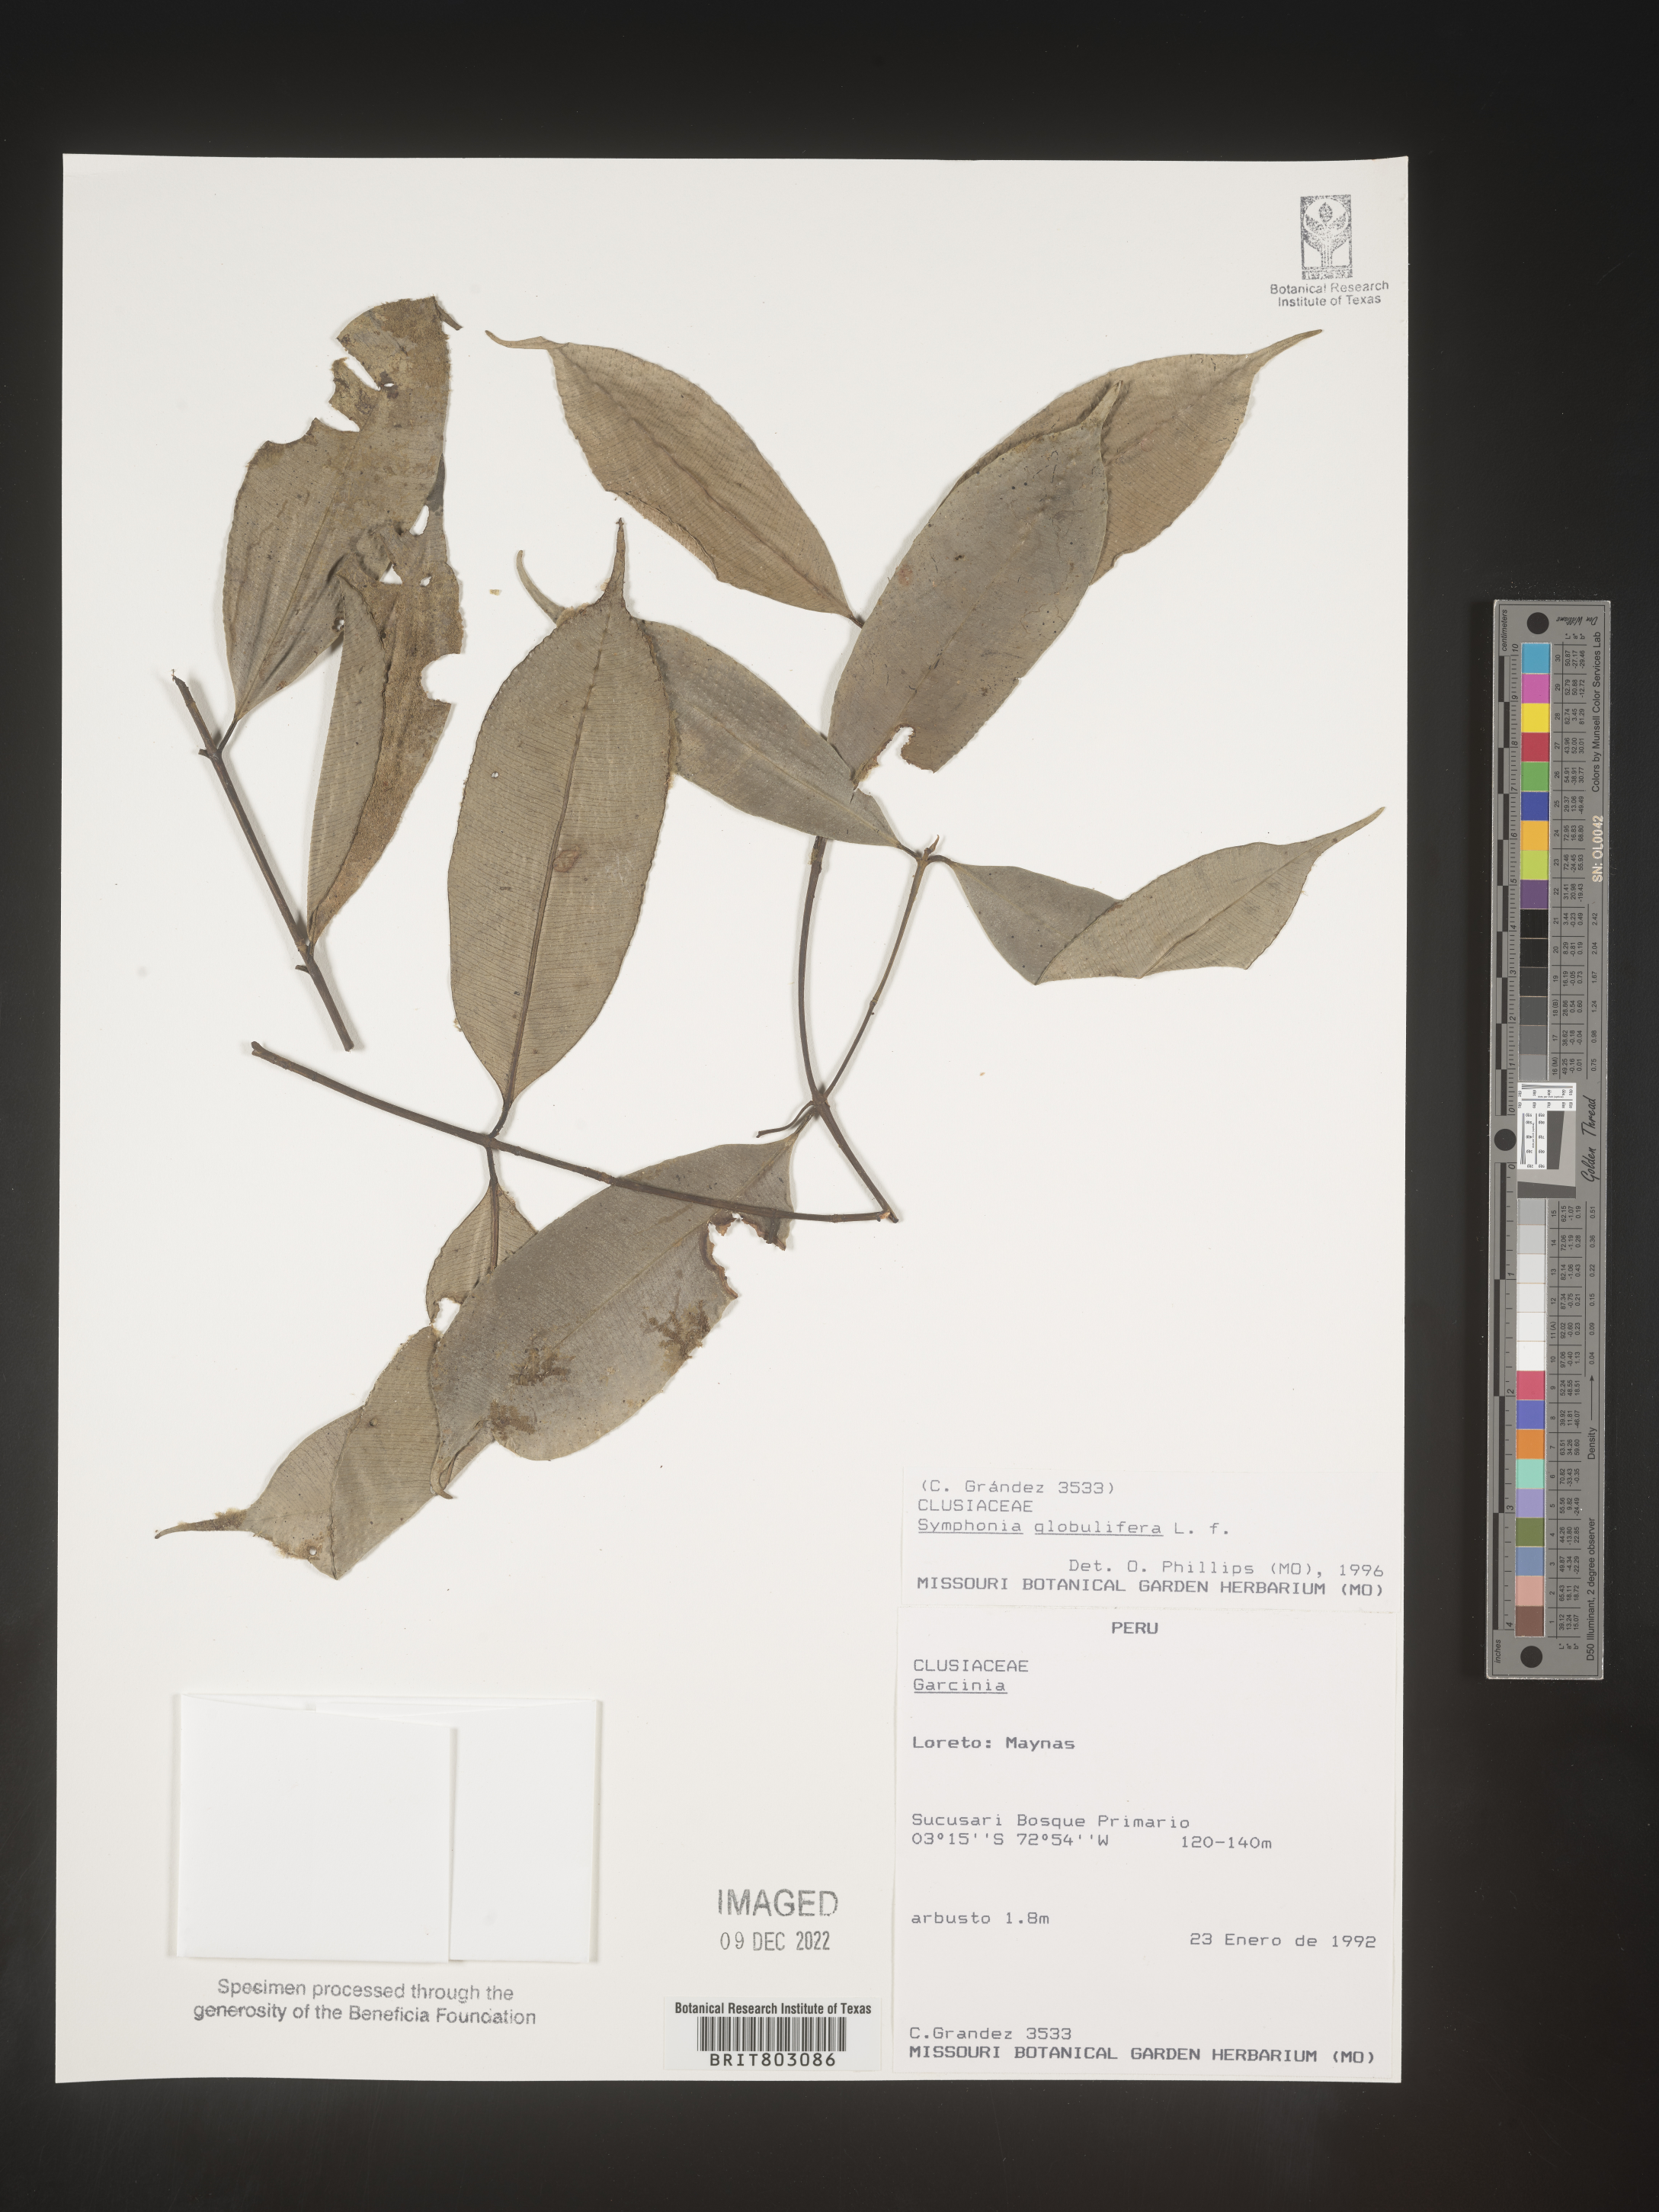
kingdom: Plantae
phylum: Tracheophyta
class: Magnoliopsida
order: Malpighiales
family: Clusiaceae
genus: Symphonia
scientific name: Symphonia
